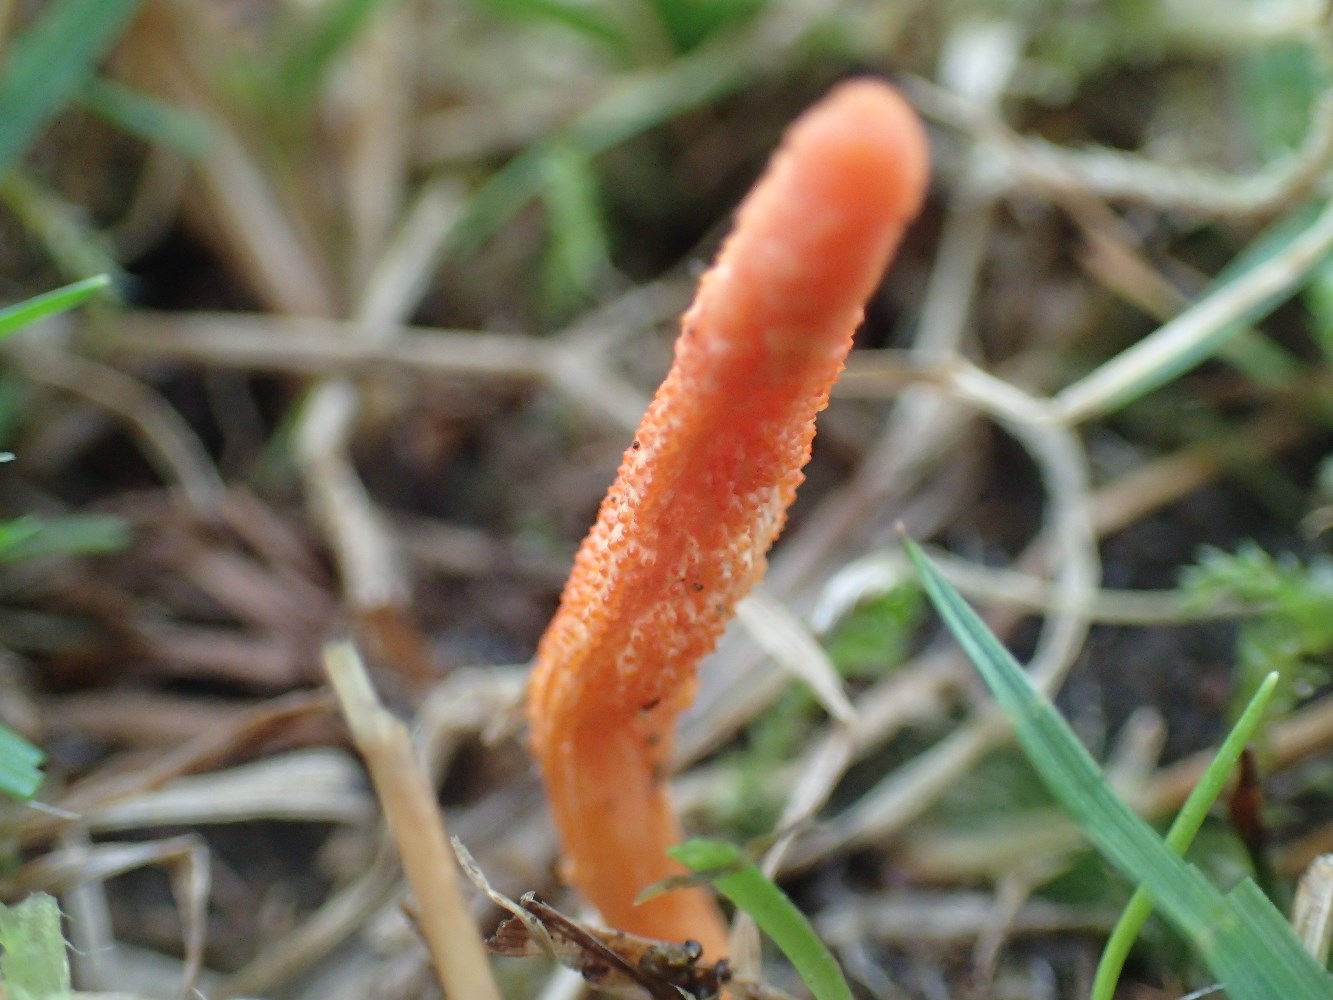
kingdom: Fungi
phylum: Ascomycota
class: Sordariomycetes
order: Hypocreales
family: Cordycipitaceae
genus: Cordyceps
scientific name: Cordyceps militaris
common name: puppe-snyltekølle
